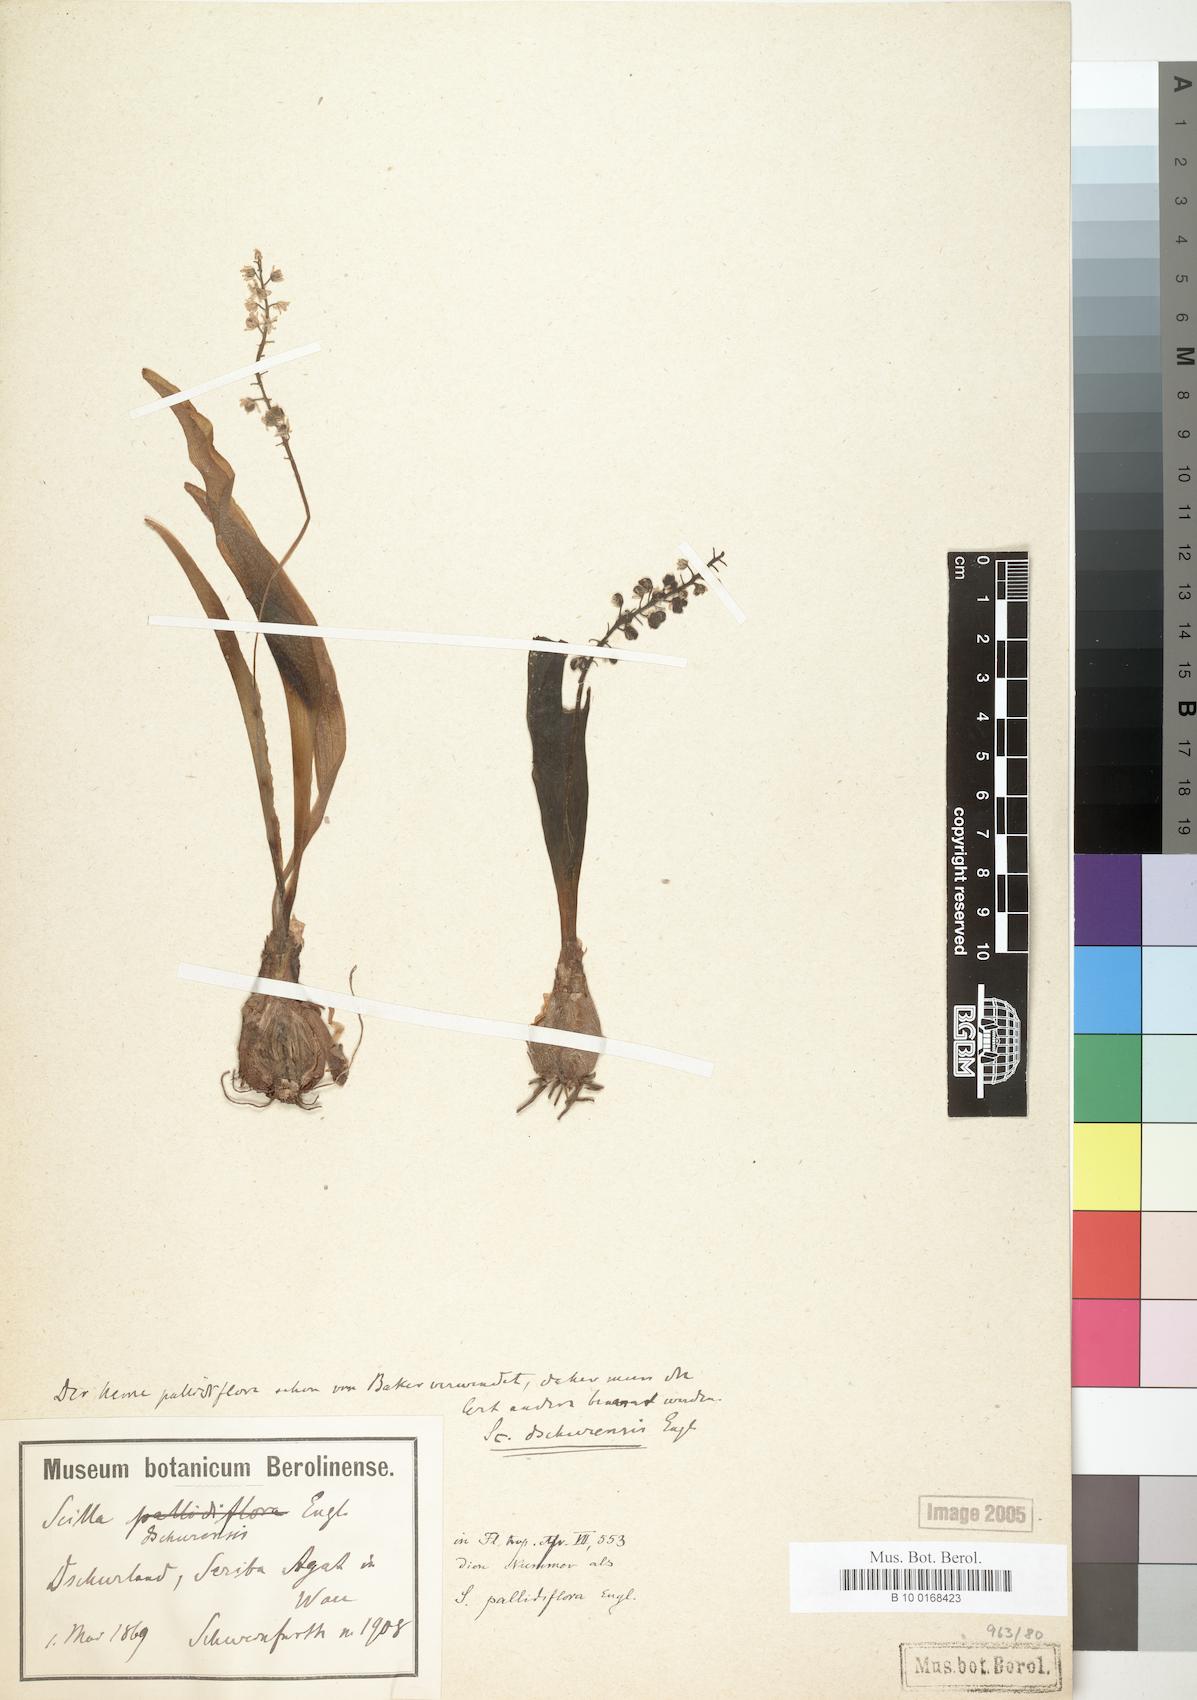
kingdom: Plantae
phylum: Tracheophyta
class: Liliopsida
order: Asparagales
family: Asparagaceae
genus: Scilla
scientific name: Scilla engleri
